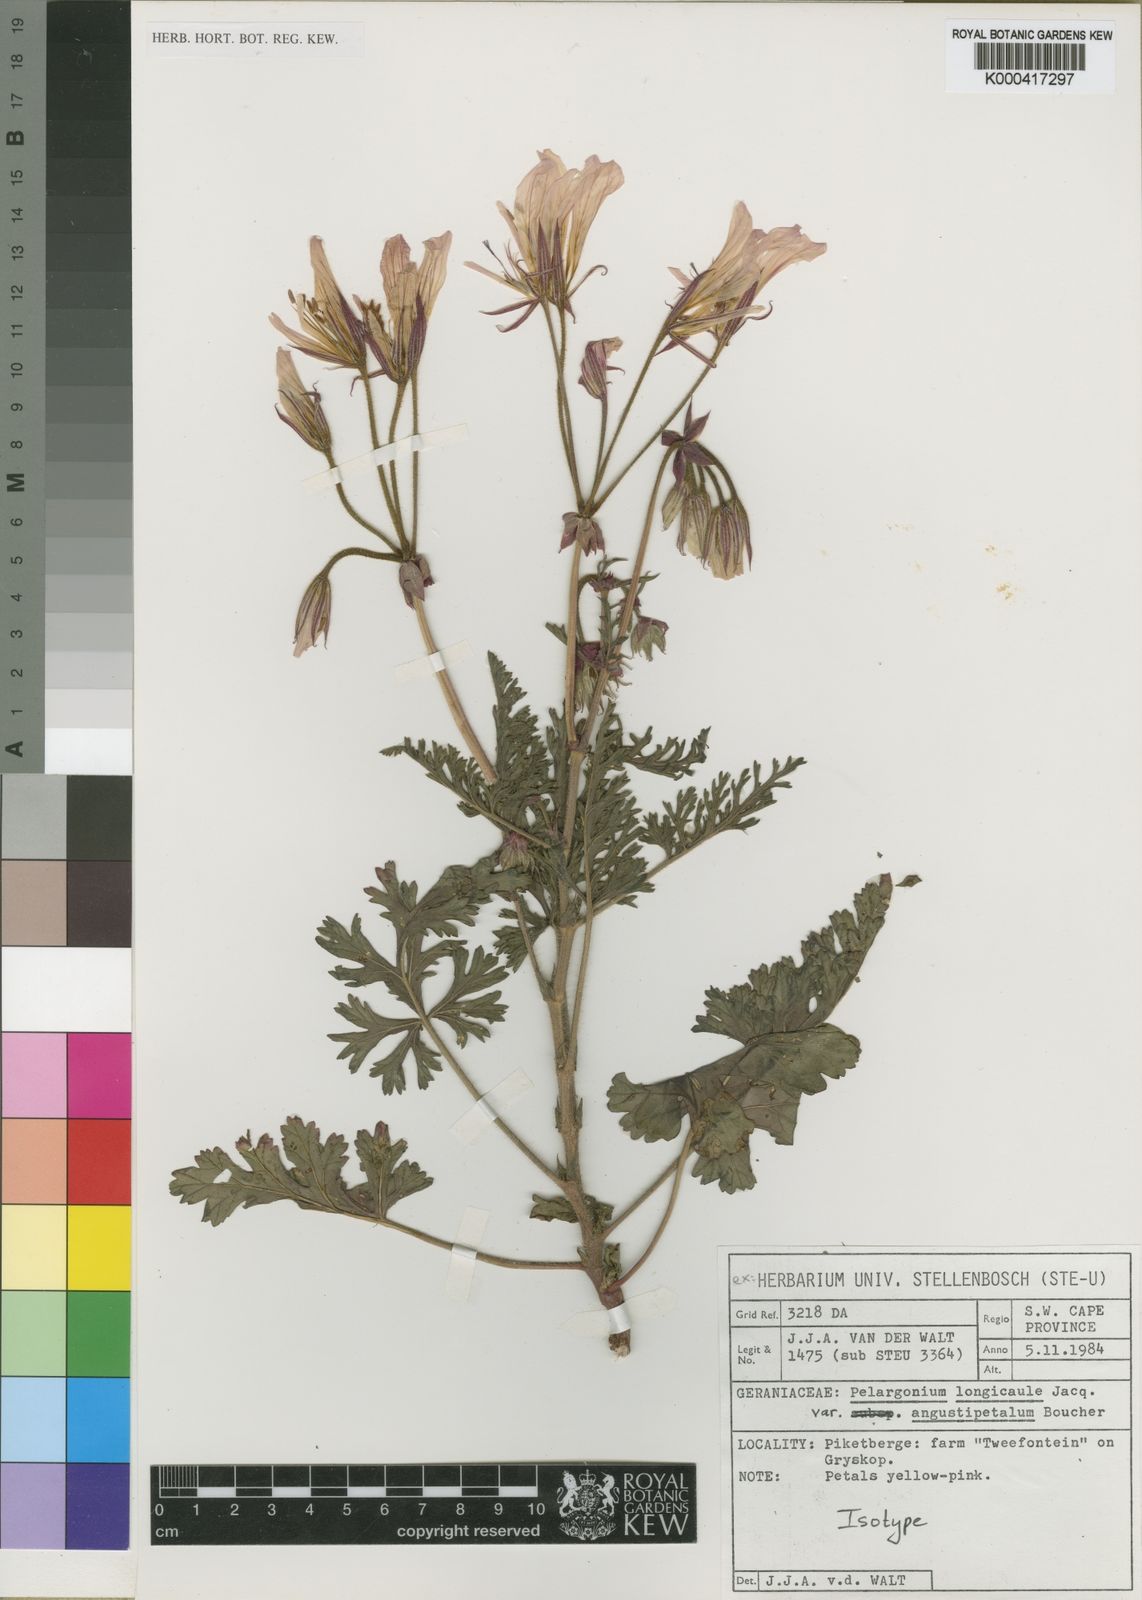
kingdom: Plantae
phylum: Tracheophyta
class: Magnoliopsida
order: Geraniales
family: Geraniaceae
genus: Pelargonium
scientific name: Pelargonium longicaule
